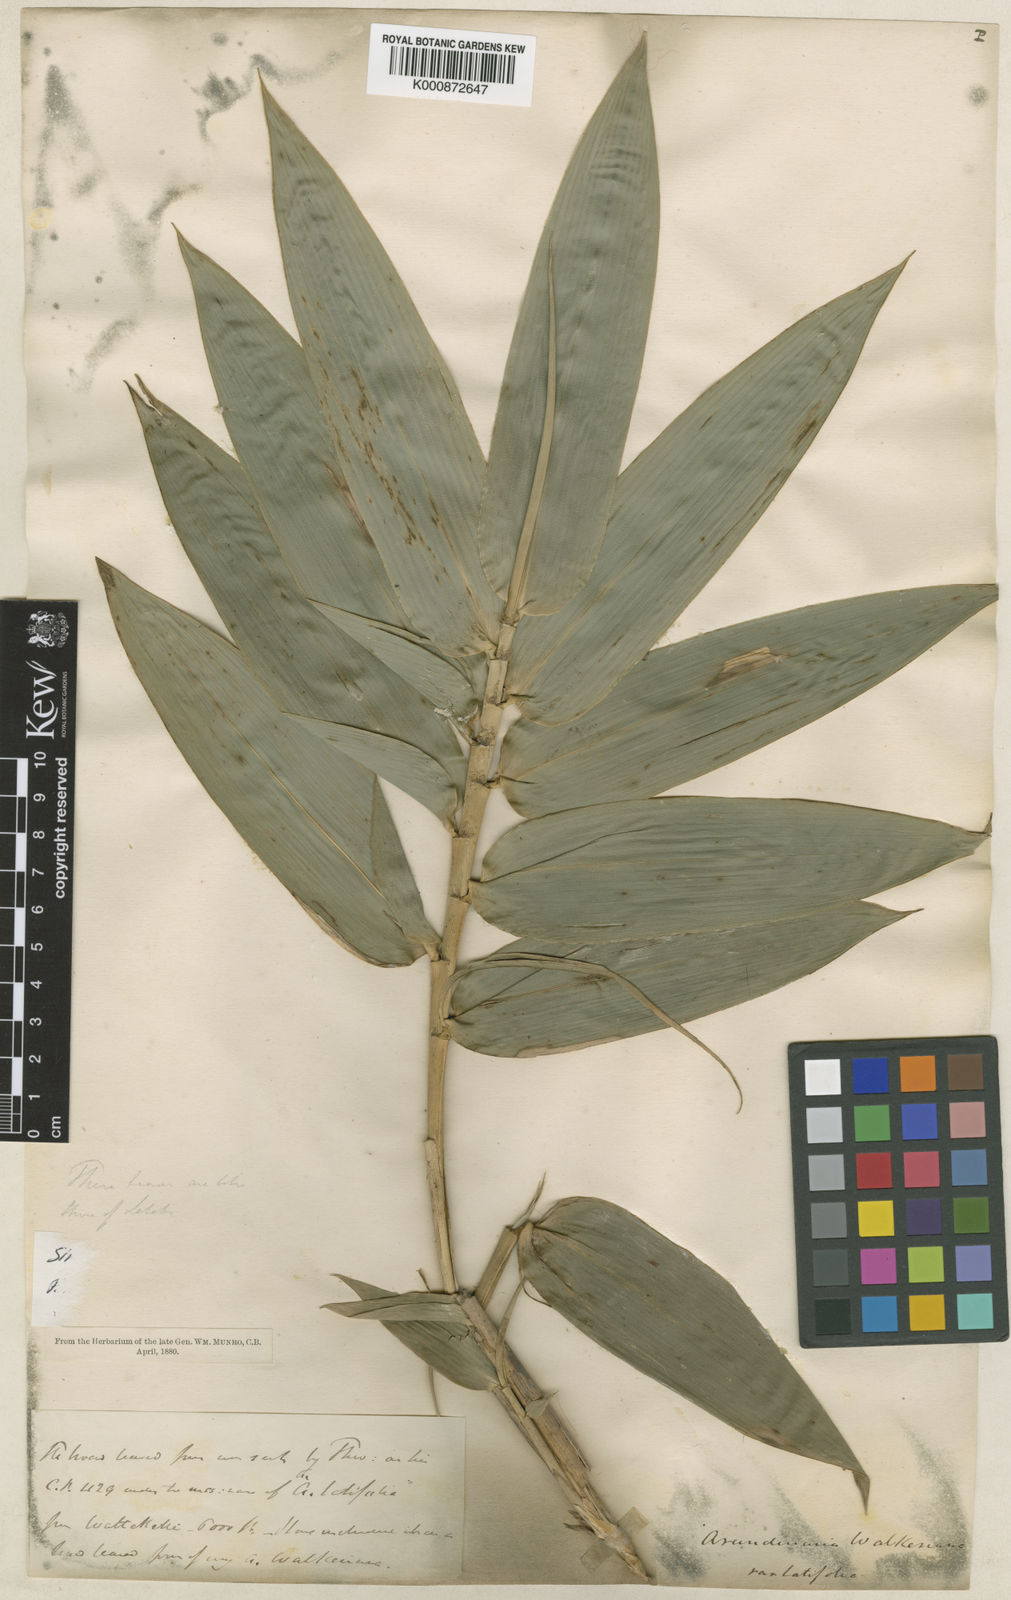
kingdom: Plantae
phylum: Tracheophyta
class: Liliopsida
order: Poales
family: Poaceae
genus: Kuruna
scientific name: Kuruna walkeriana
